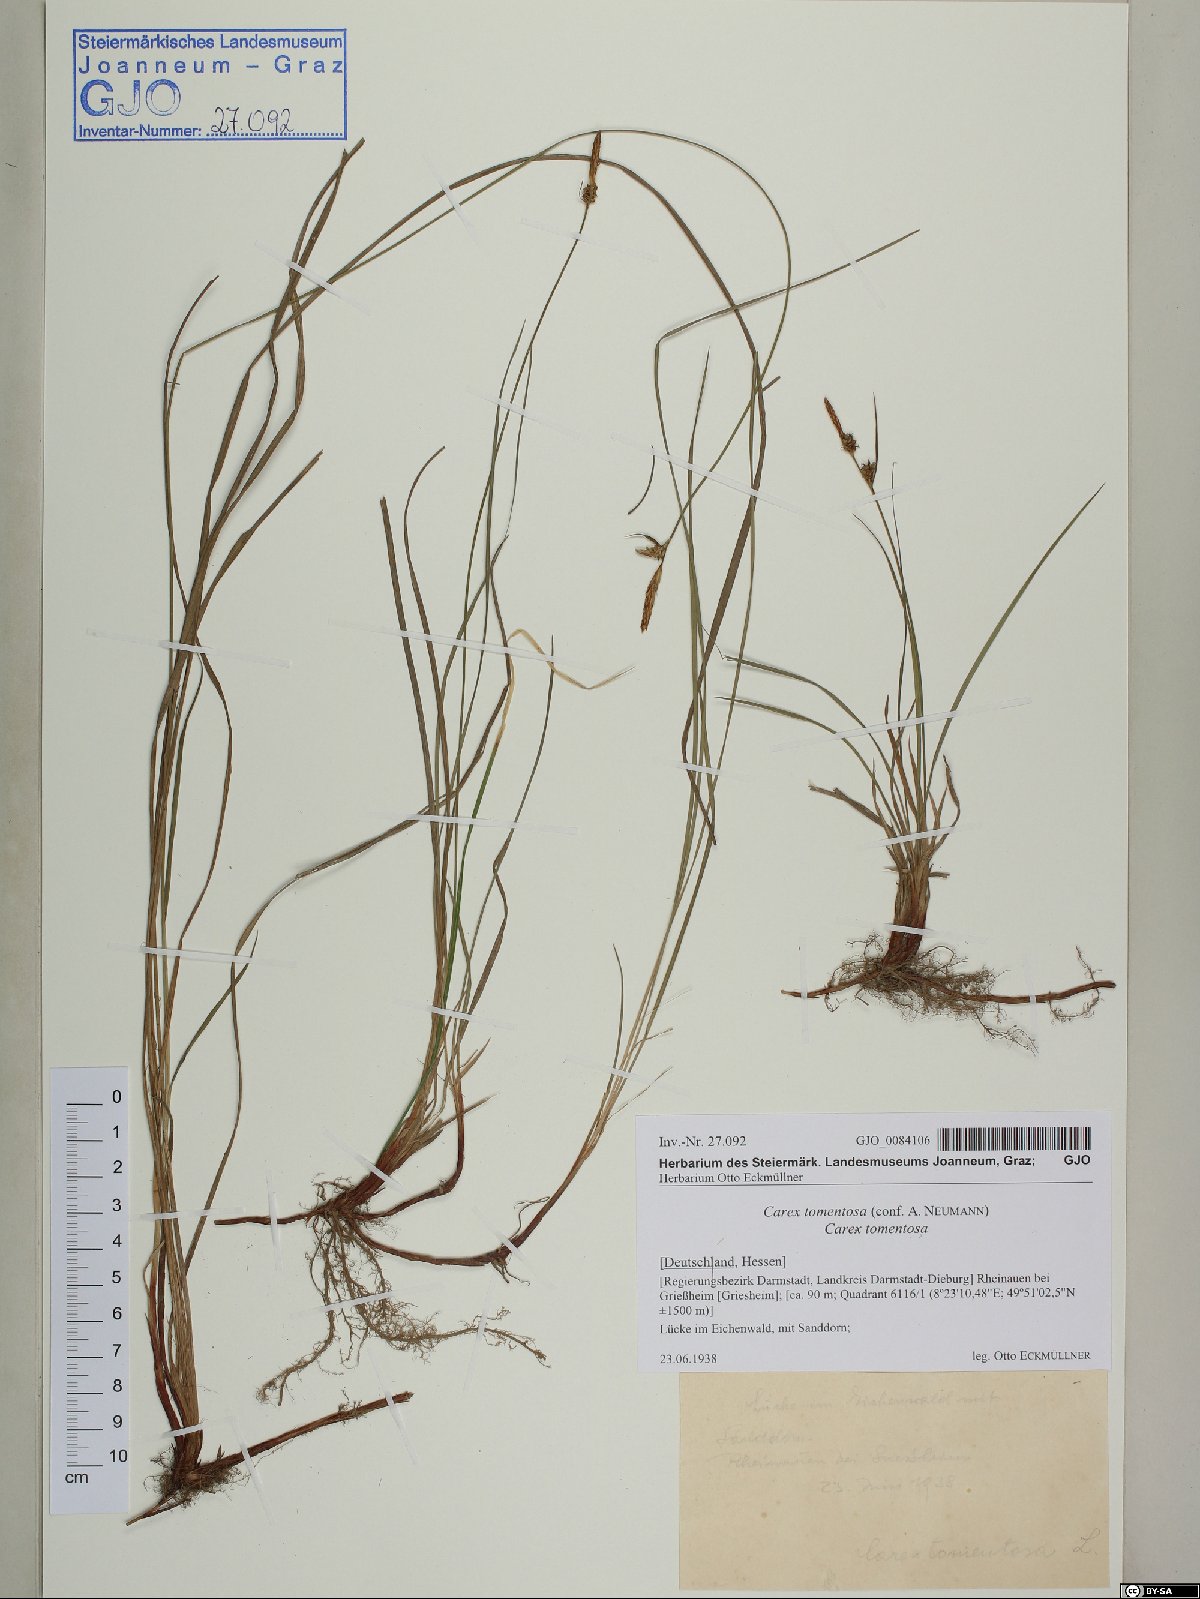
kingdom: Plantae
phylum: Tracheophyta
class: Liliopsida
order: Poales
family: Cyperaceae
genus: Carex
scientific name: Carex tomentosa
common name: Downy-fruited sedge
